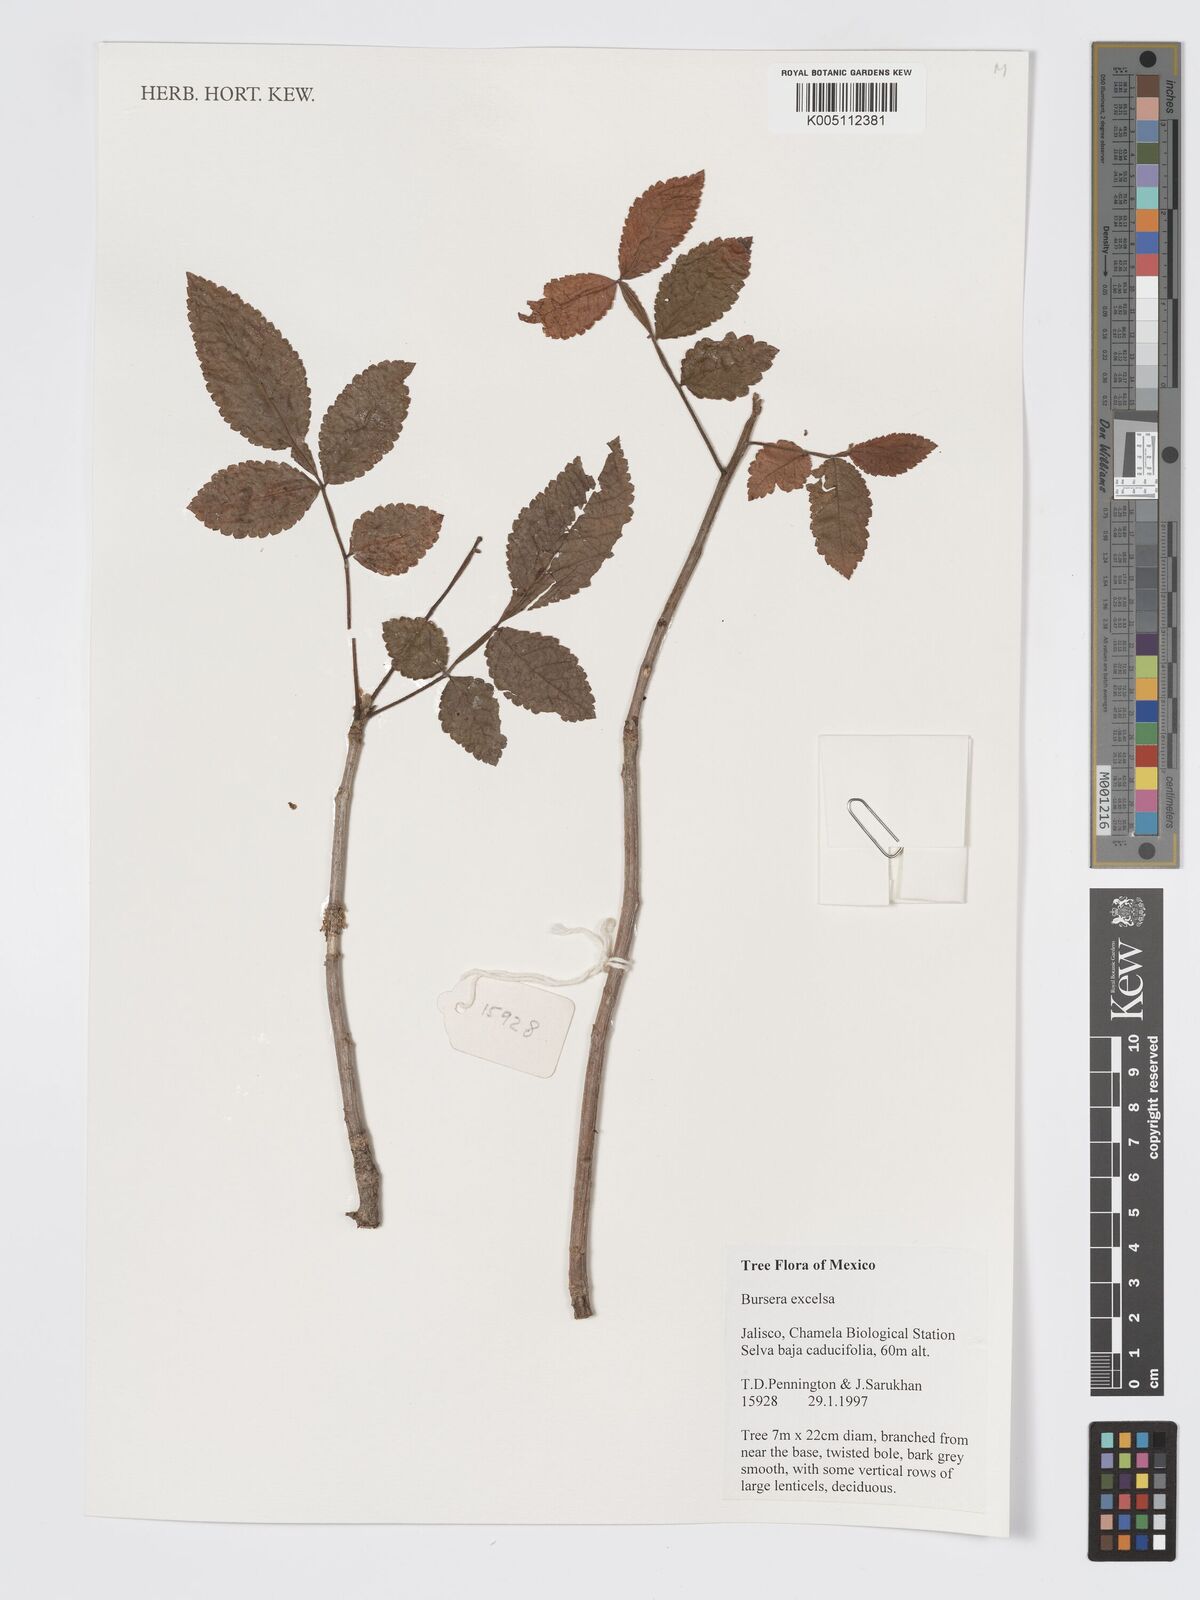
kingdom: Plantae
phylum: Tracheophyta
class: Magnoliopsida
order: Sapindales
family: Burseraceae
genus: Bursera
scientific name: Bursera excelsa
